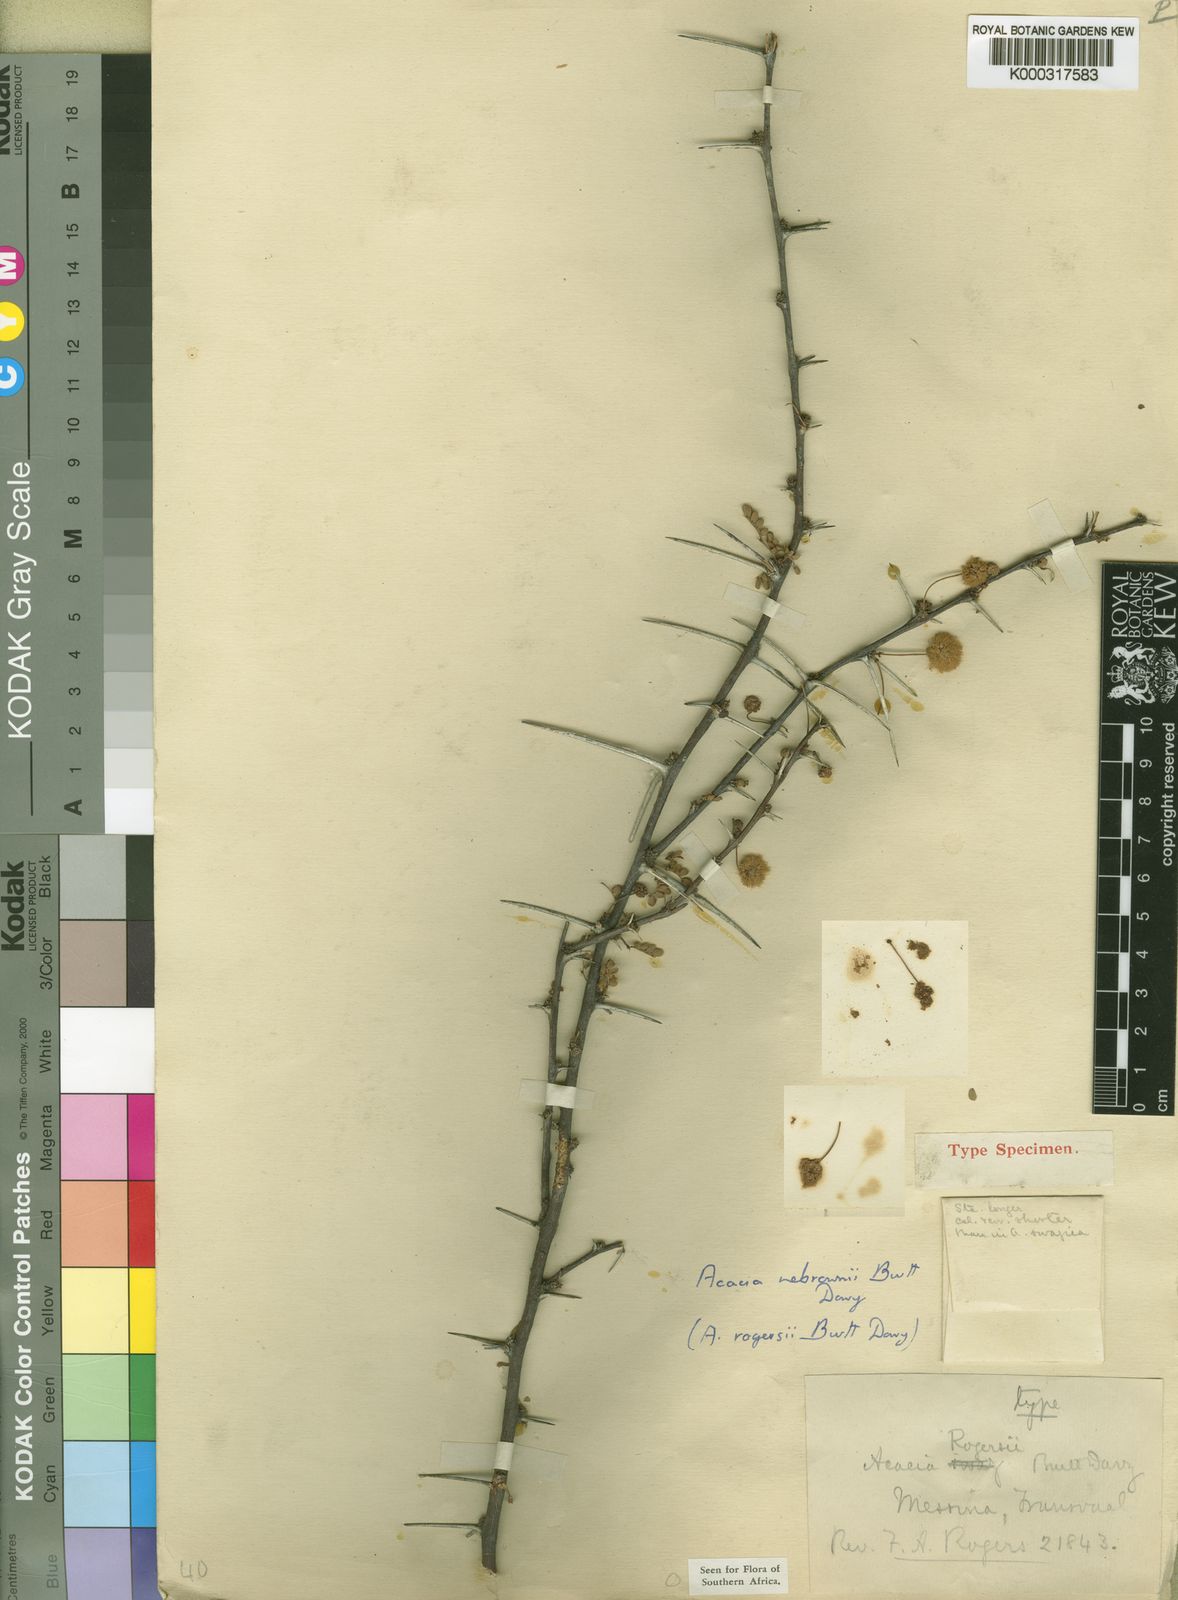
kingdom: Plantae
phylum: Tracheophyta
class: Magnoliopsida
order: Fabales
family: Fabaceae
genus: Vachellia
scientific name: Vachellia nebrownii
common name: Water acacia
